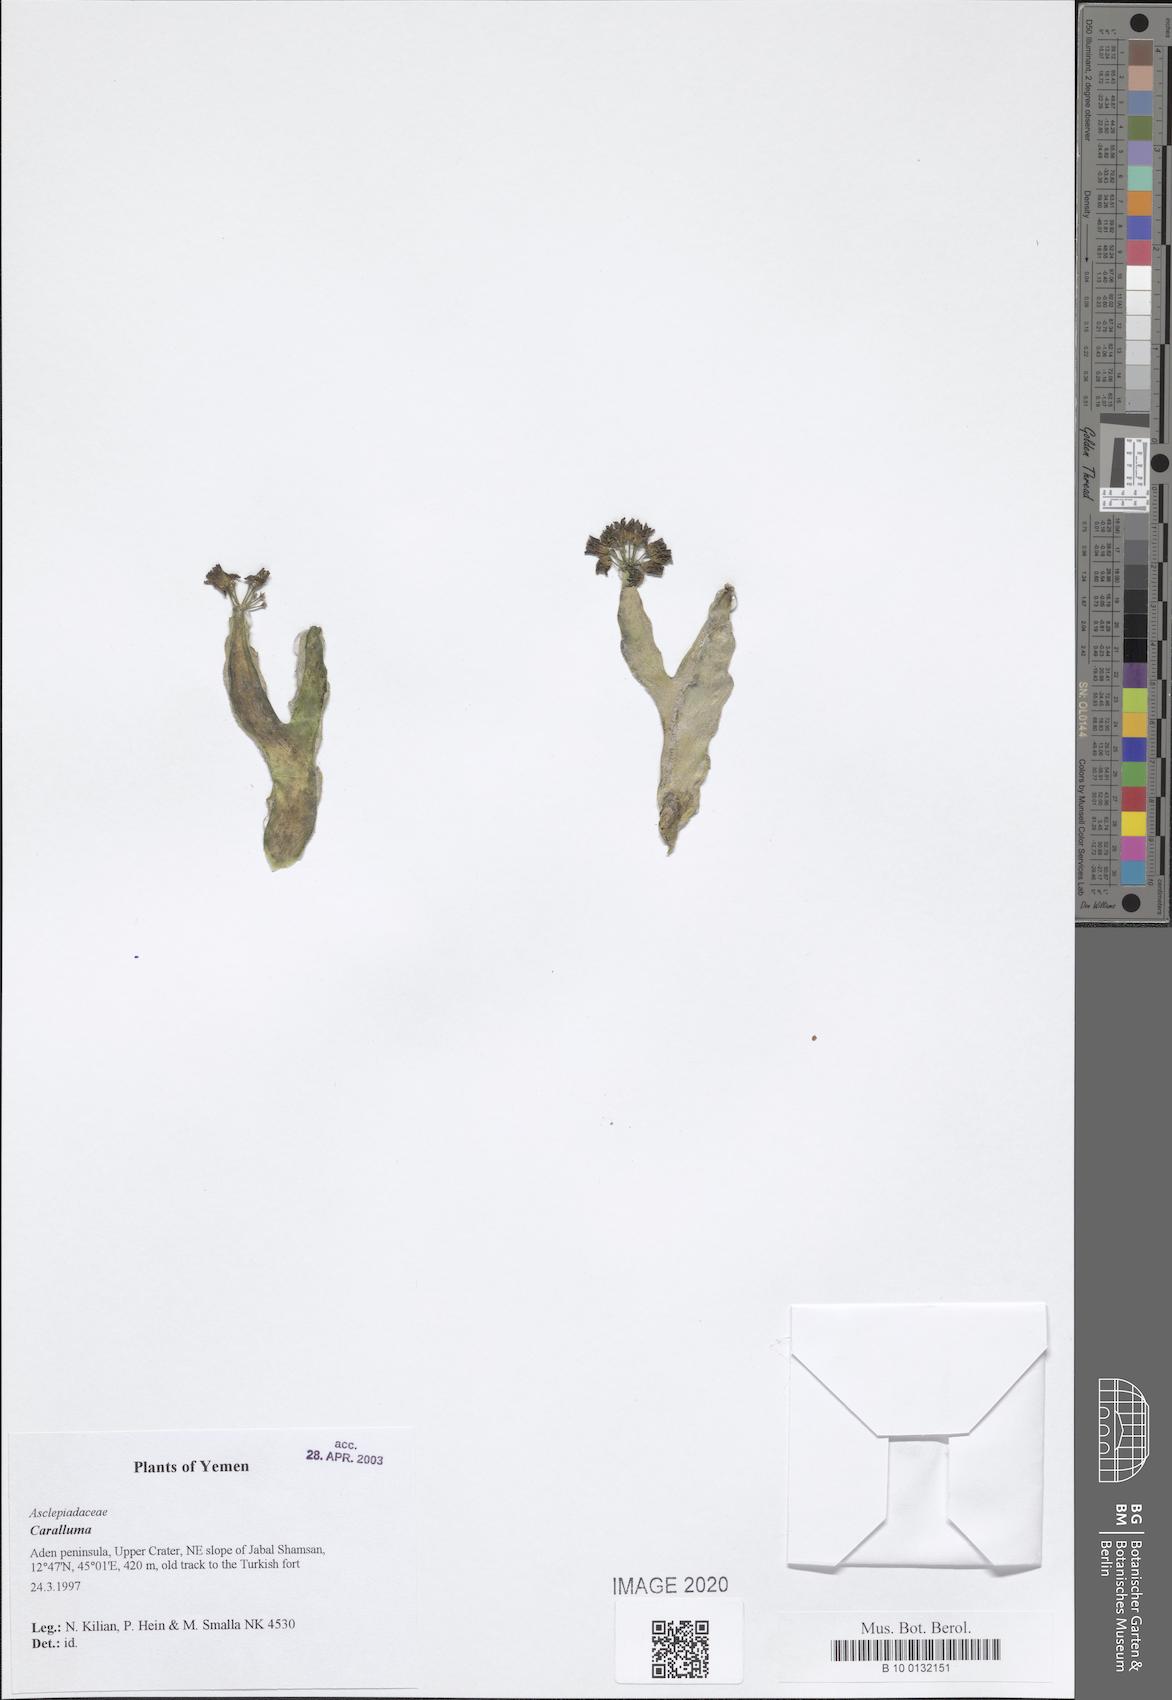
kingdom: Plantae
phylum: Tracheophyta
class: Magnoliopsida
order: Gentianales
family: Apocynaceae
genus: Ceropegia
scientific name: Ceropegia adenensis
